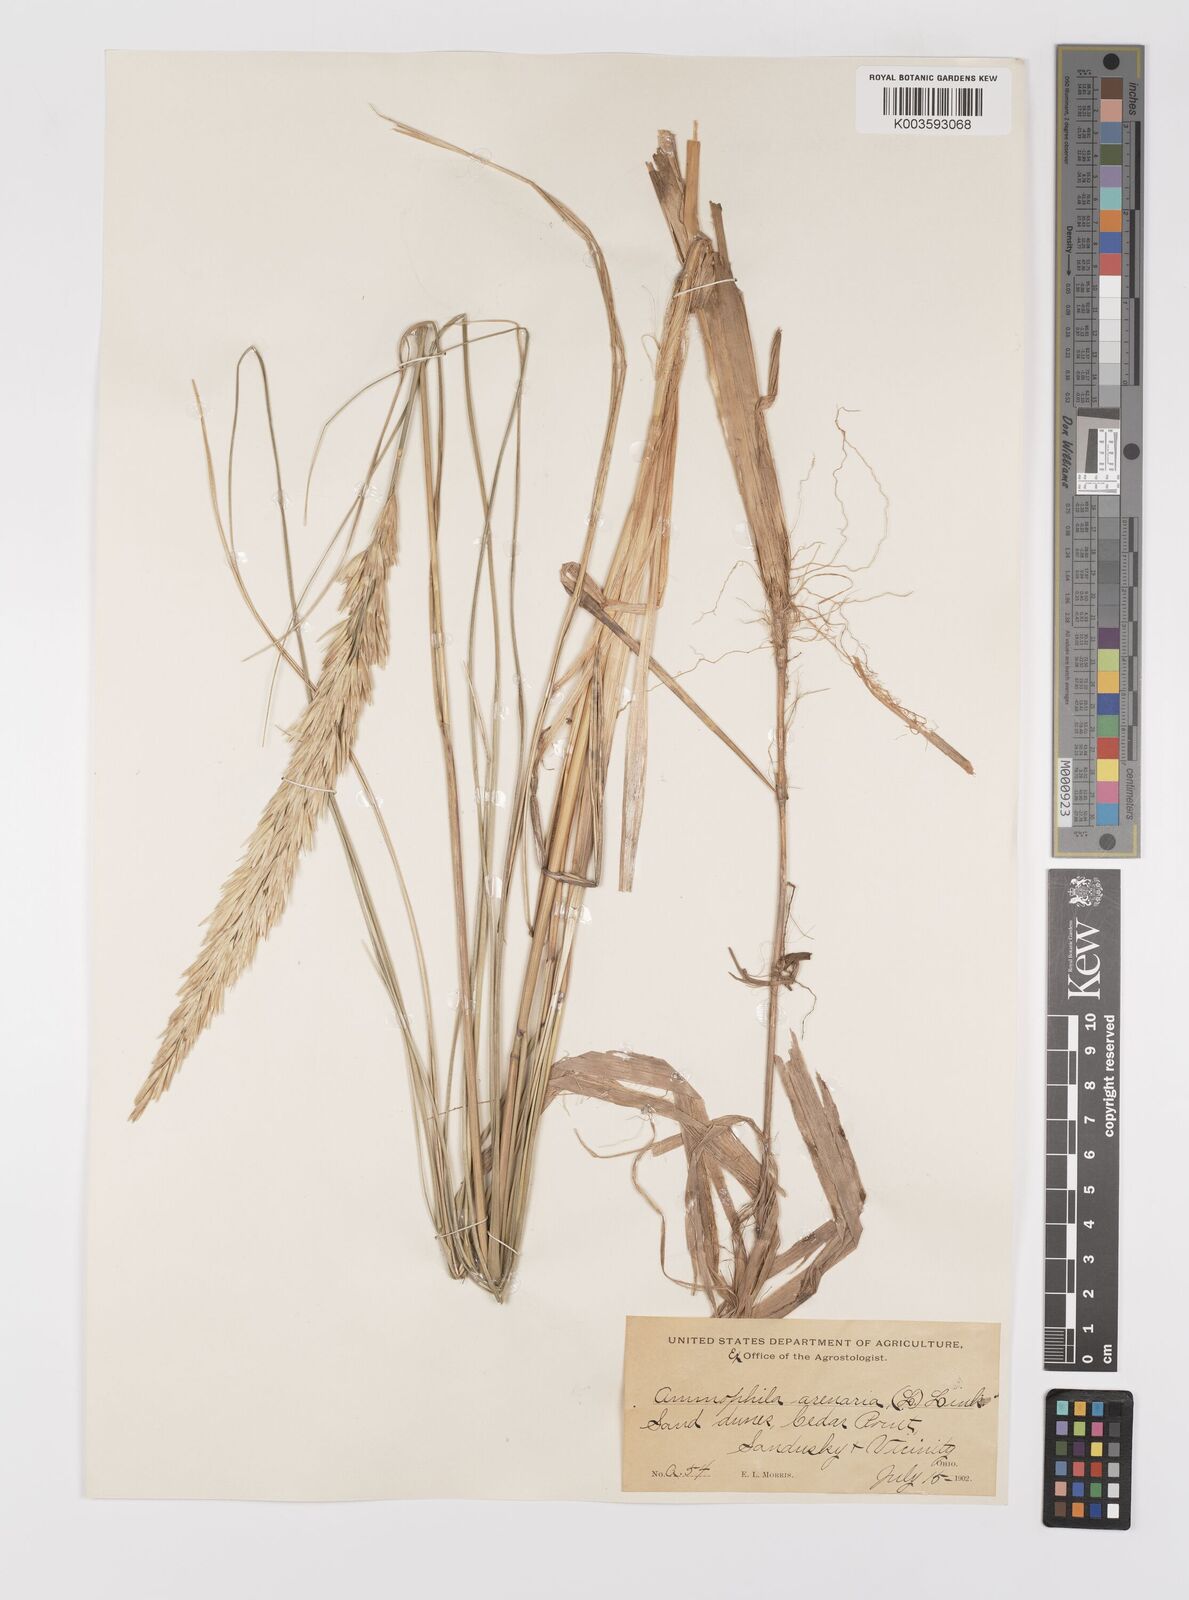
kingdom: Plantae
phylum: Tracheophyta
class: Liliopsida
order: Poales
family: Poaceae
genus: Calamagrostis
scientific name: Calamagrostis breviligulata
